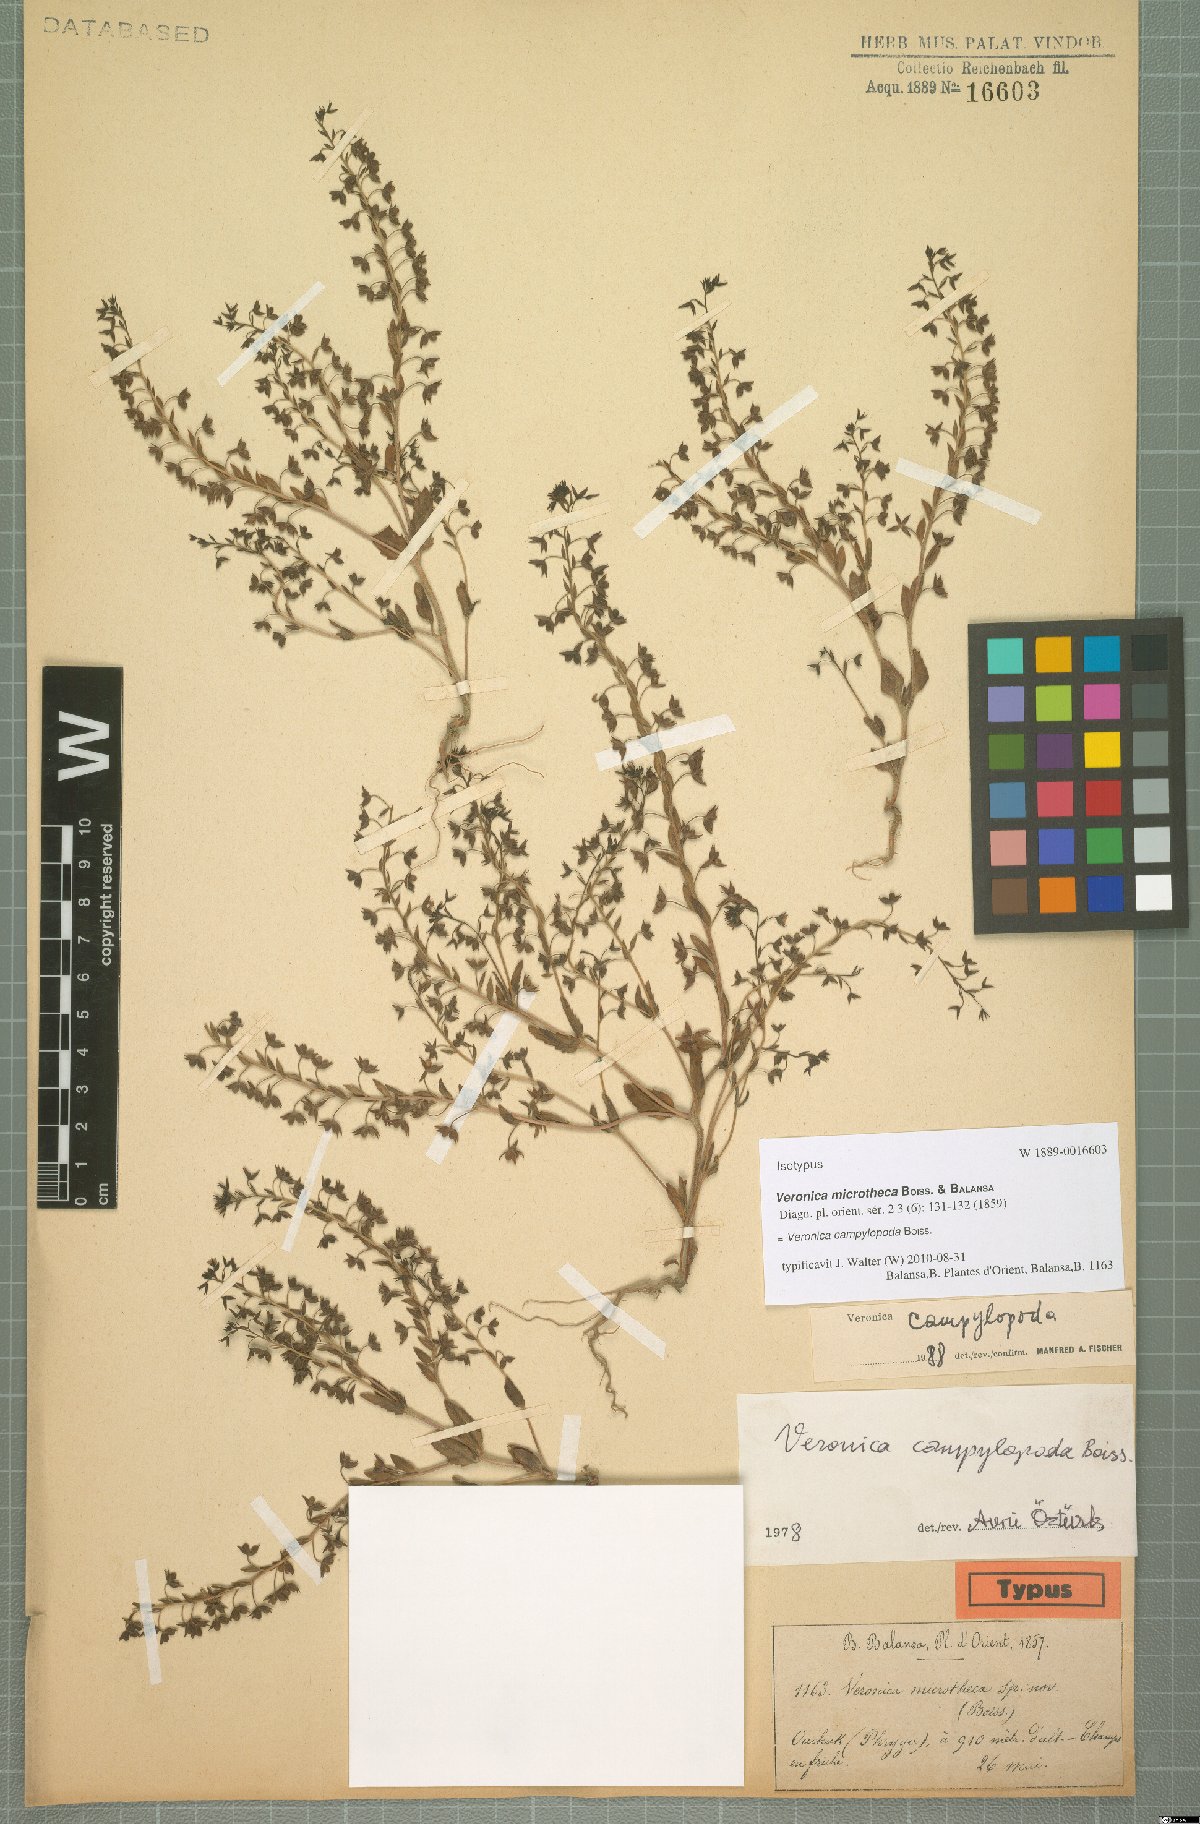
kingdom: Plantae
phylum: Tracheophyta
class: Magnoliopsida
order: Lamiales
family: Scrophulariaceae
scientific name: Scrophulariaceae
